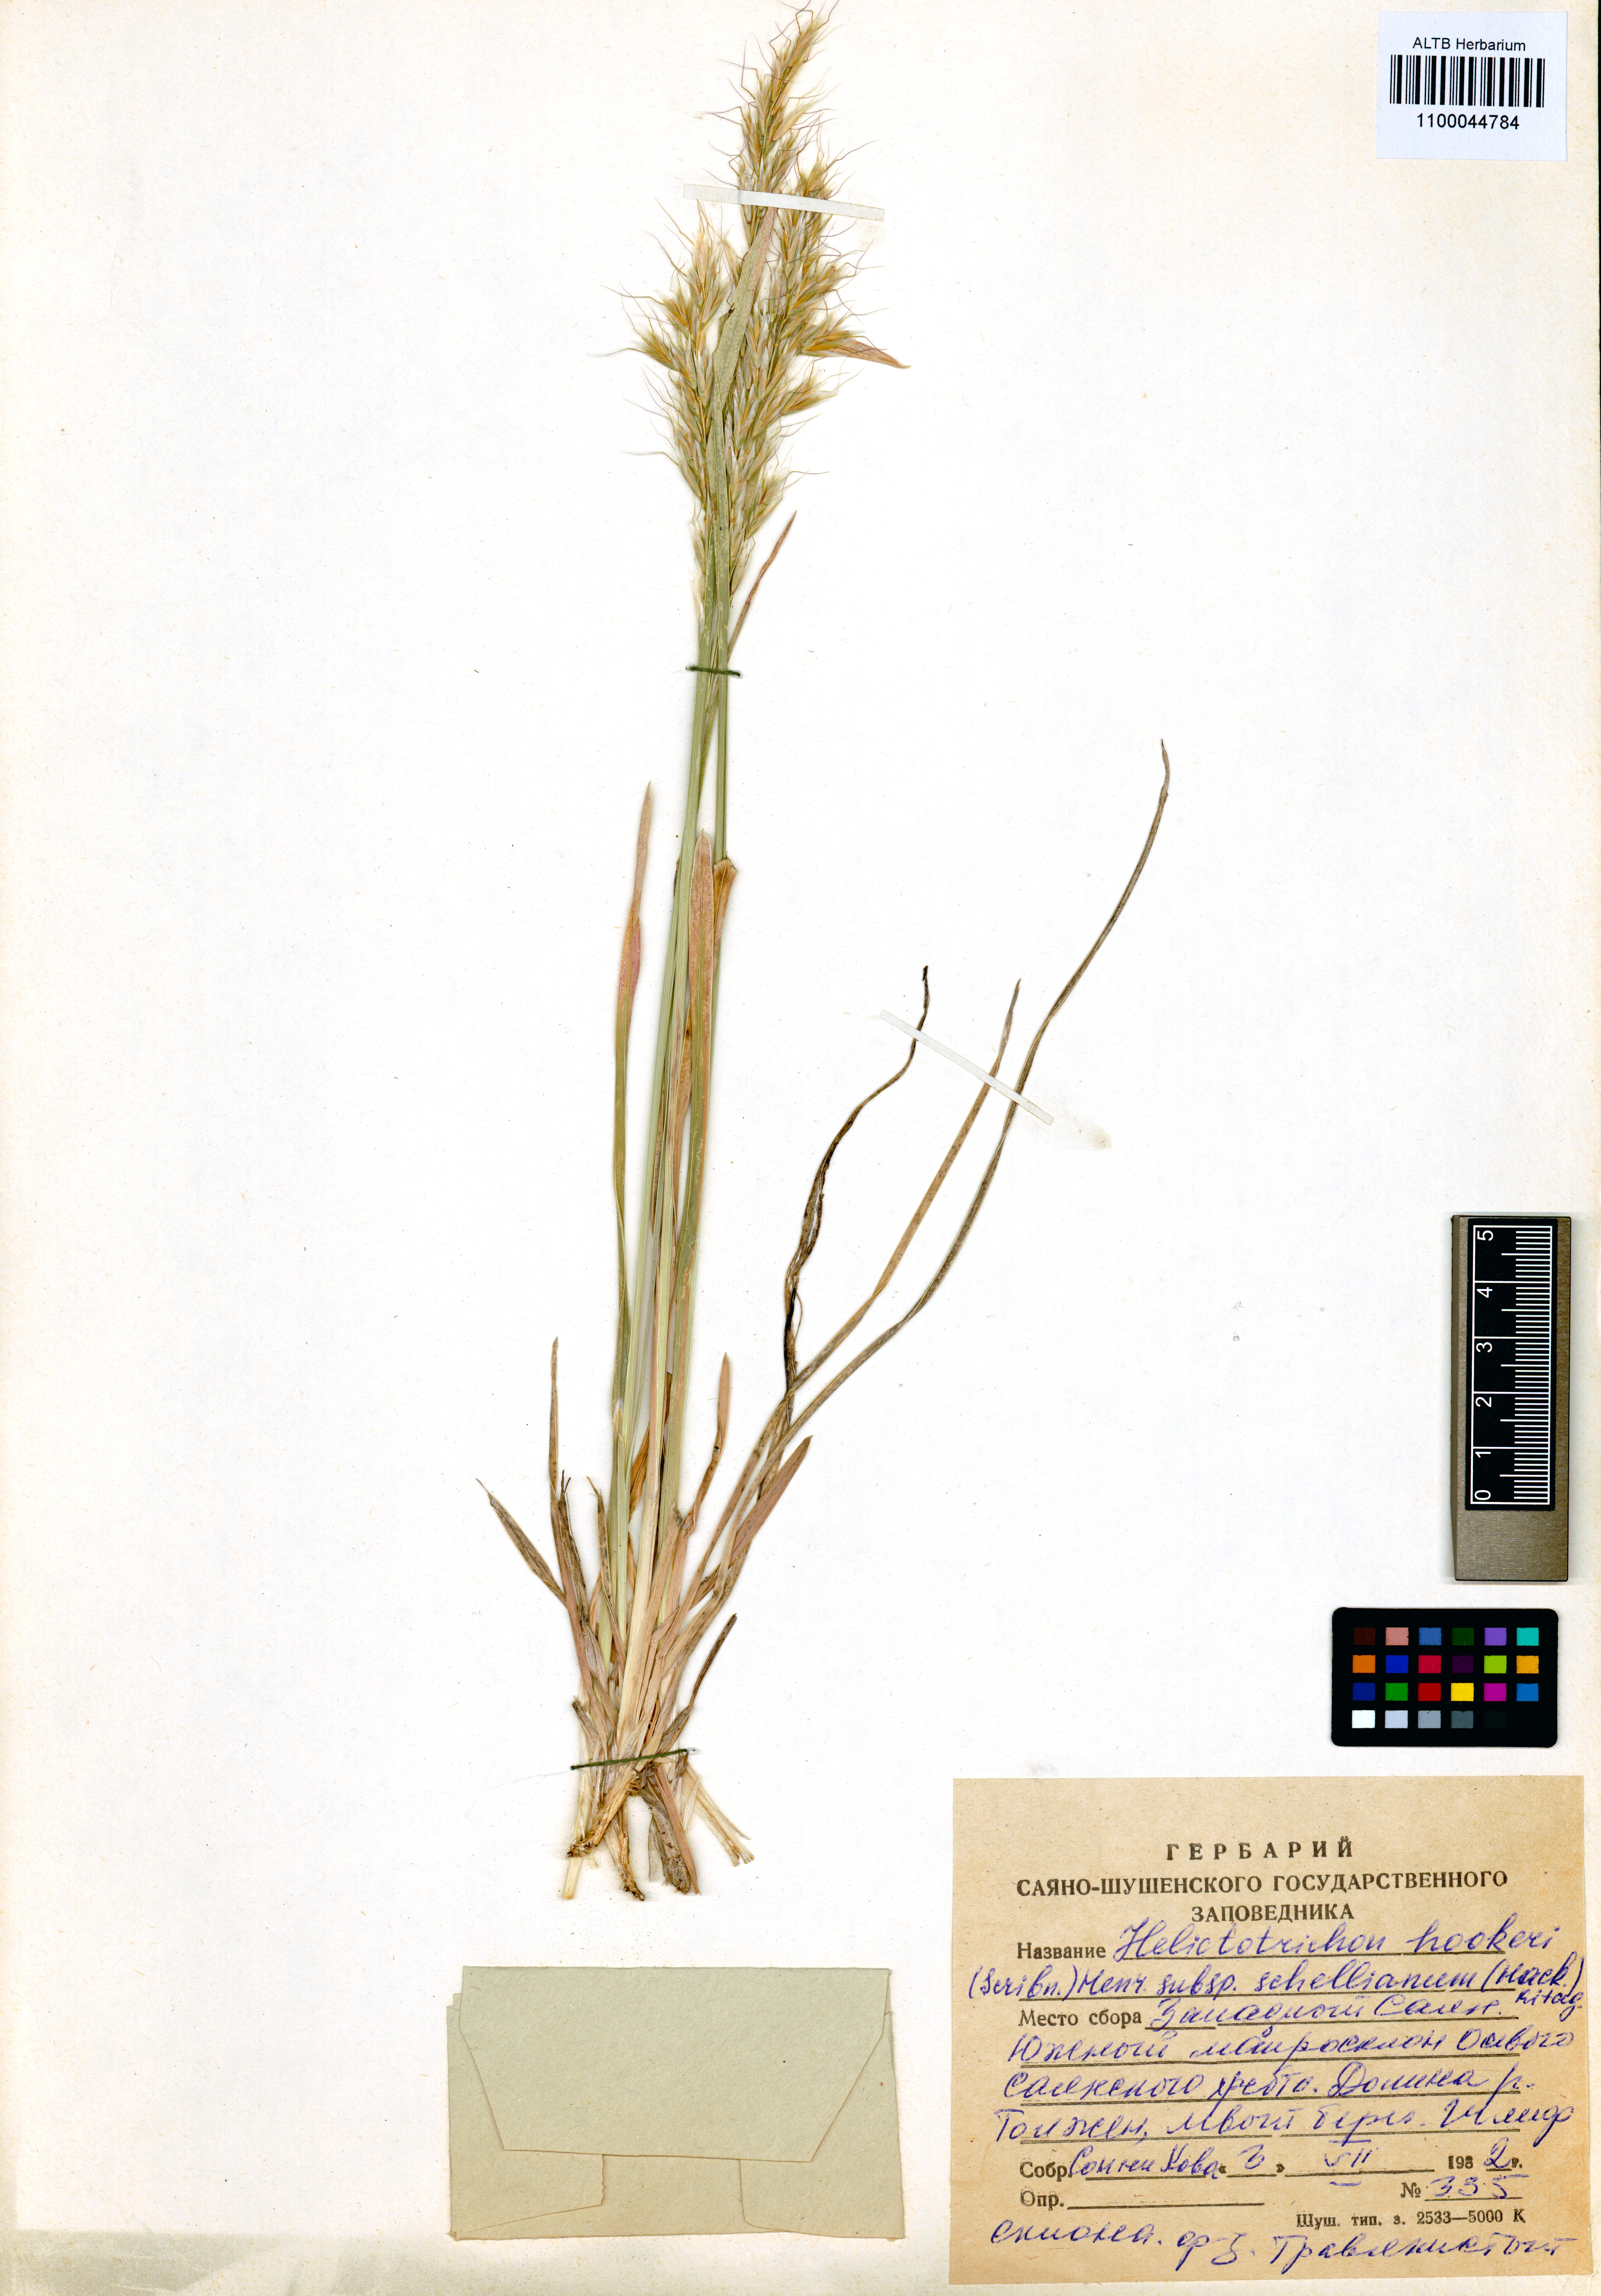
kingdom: Plantae
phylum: Tracheophyta
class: Liliopsida
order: Poales
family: Poaceae
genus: Helictochloa
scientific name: Helictochloa hookeri
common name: Hooker's alpine oatgrass
